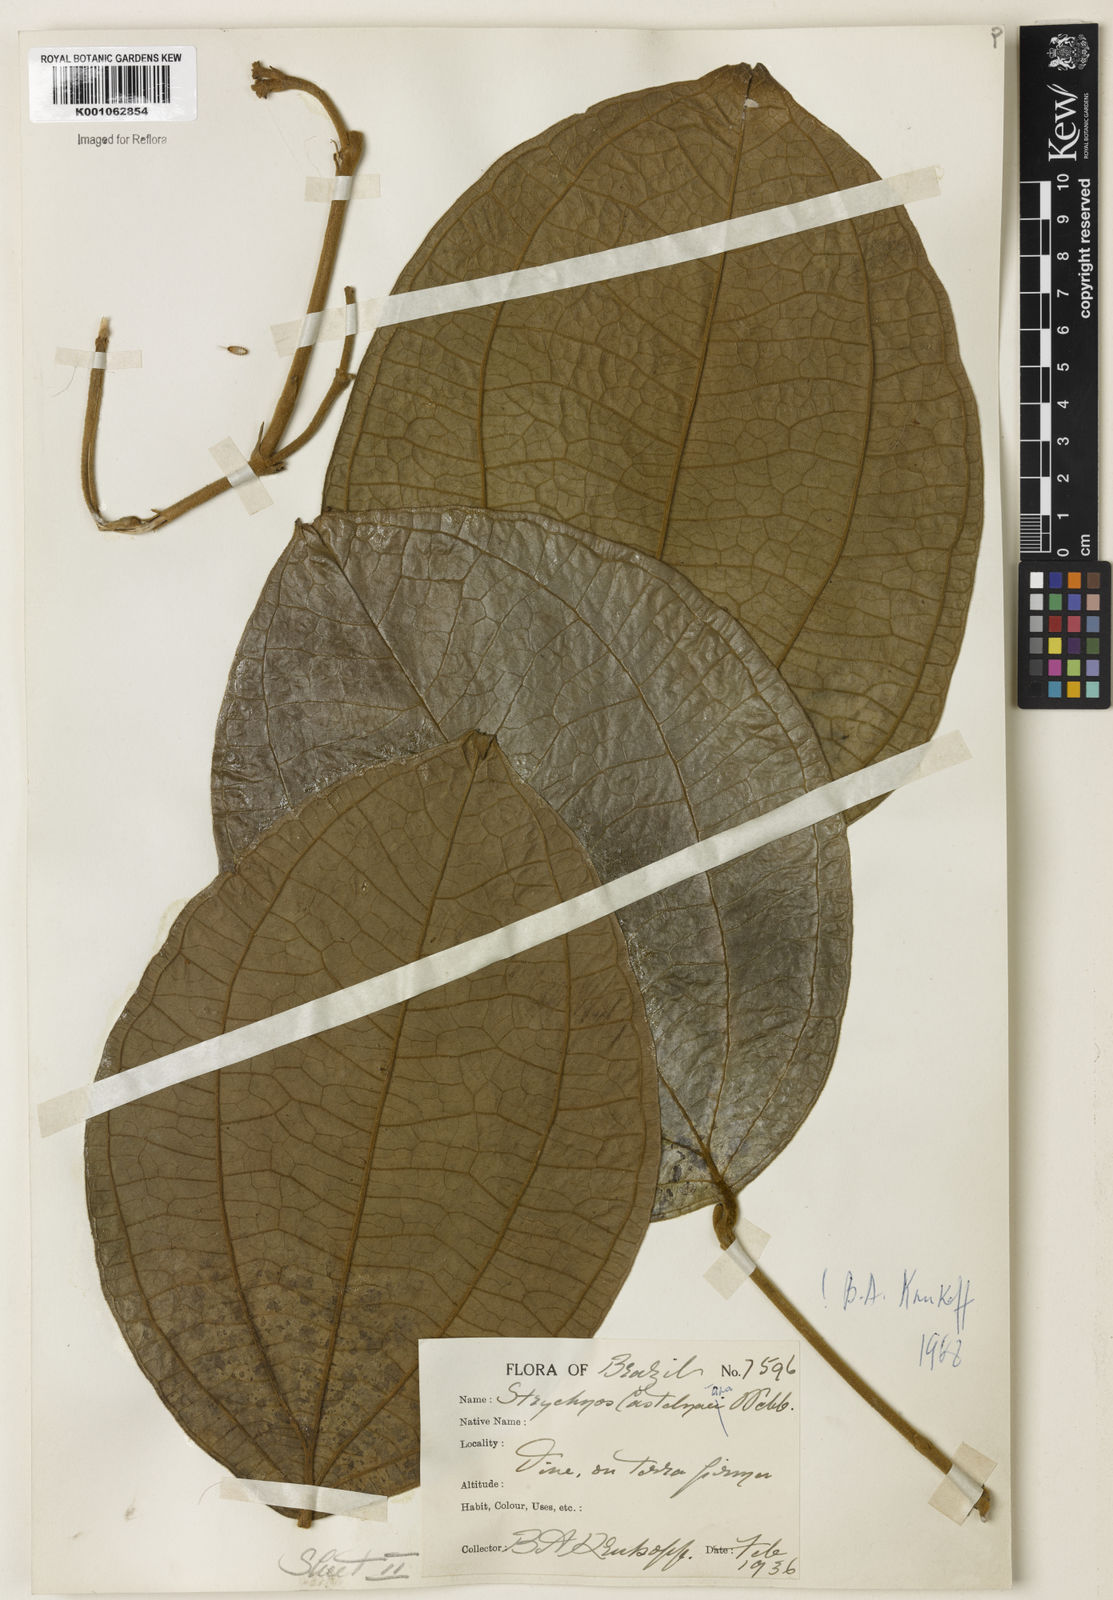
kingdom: Plantae
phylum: Tracheophyta
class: Magnoliopsida
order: Gentianales
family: Loganiaceae
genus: Strychnos
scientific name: Strychnos
